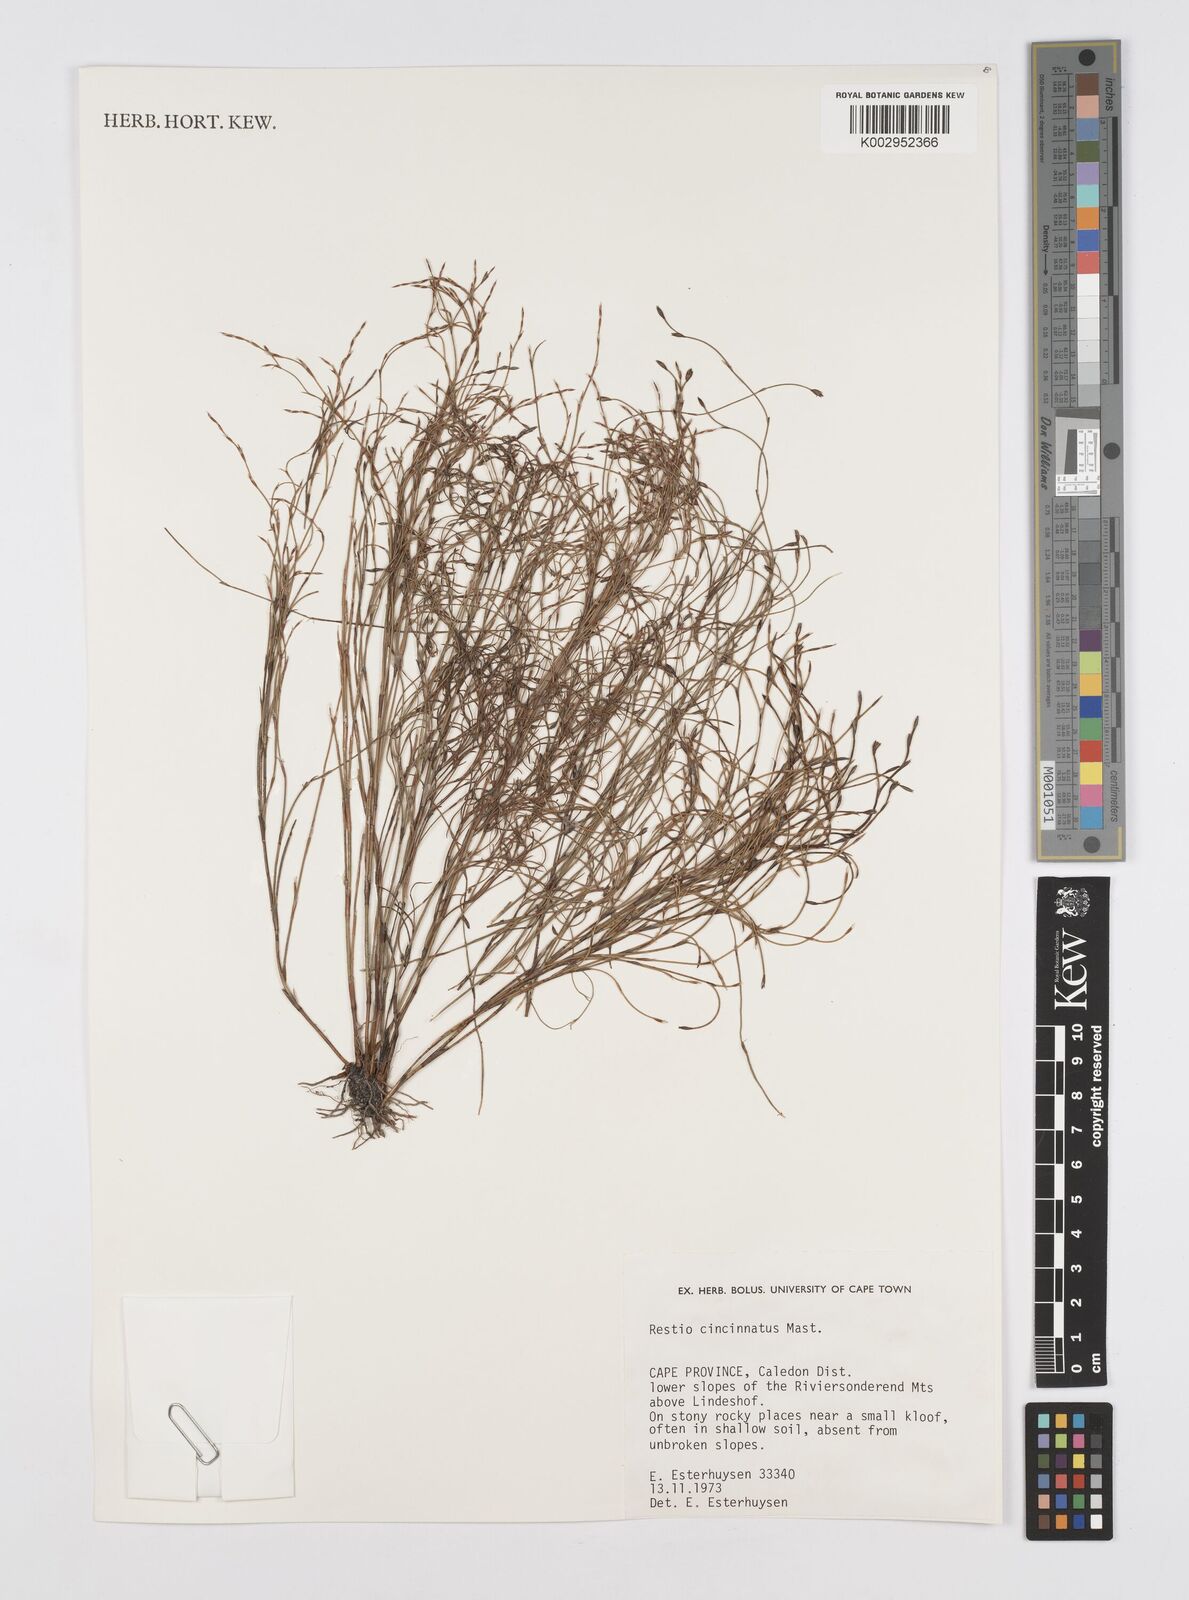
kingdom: Plantae
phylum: Tracheophyta
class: Liliopsida
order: Poales
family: Restionaceae
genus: Restio
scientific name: Restio cincinnatus
